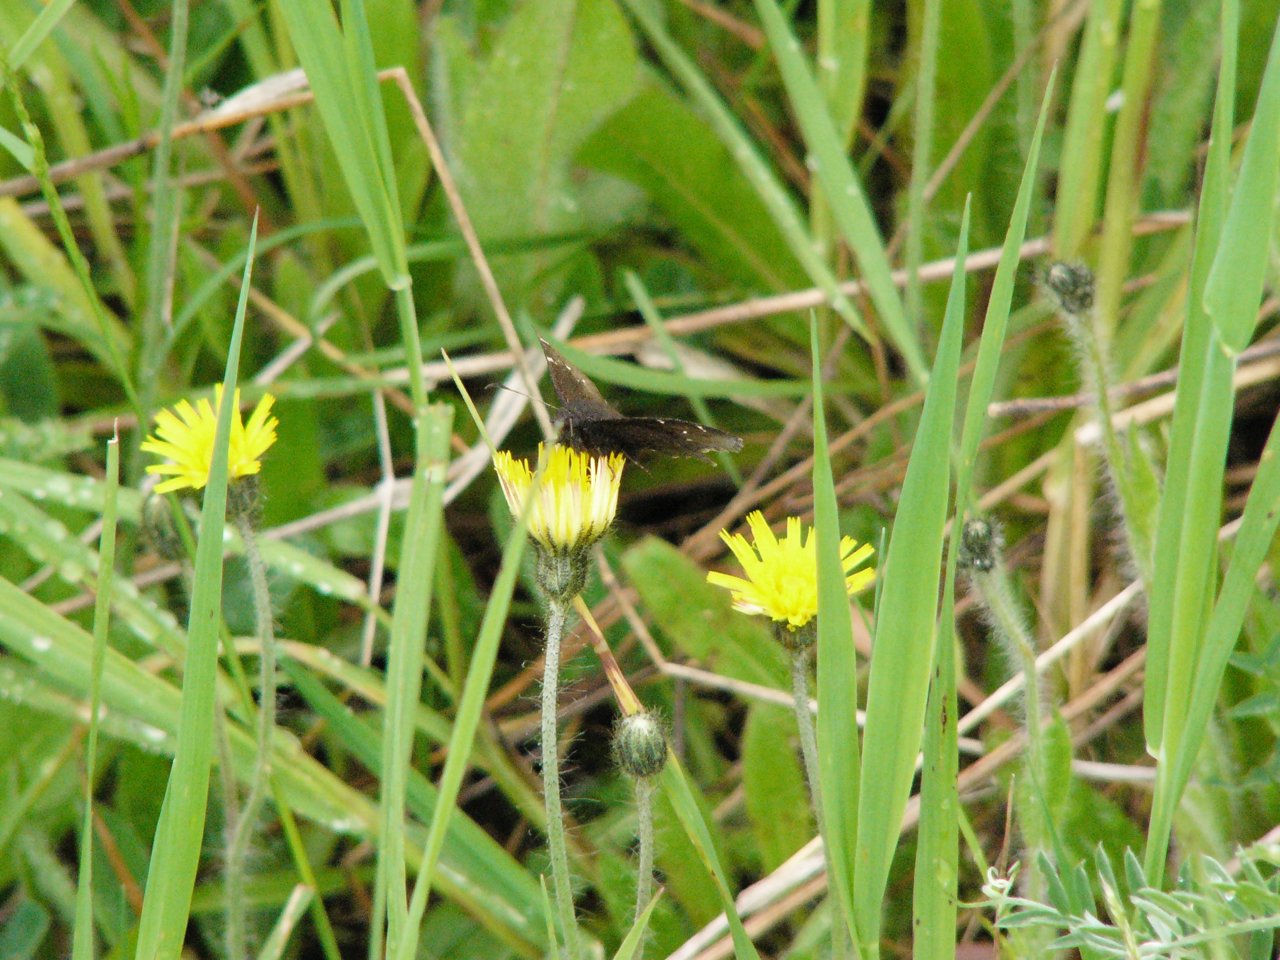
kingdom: Animalia
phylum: Arthropoda
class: Insecta
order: Lepidoptera
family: Hesperiidae
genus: Autochton
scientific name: Autochton
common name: Northern Cloudywing
